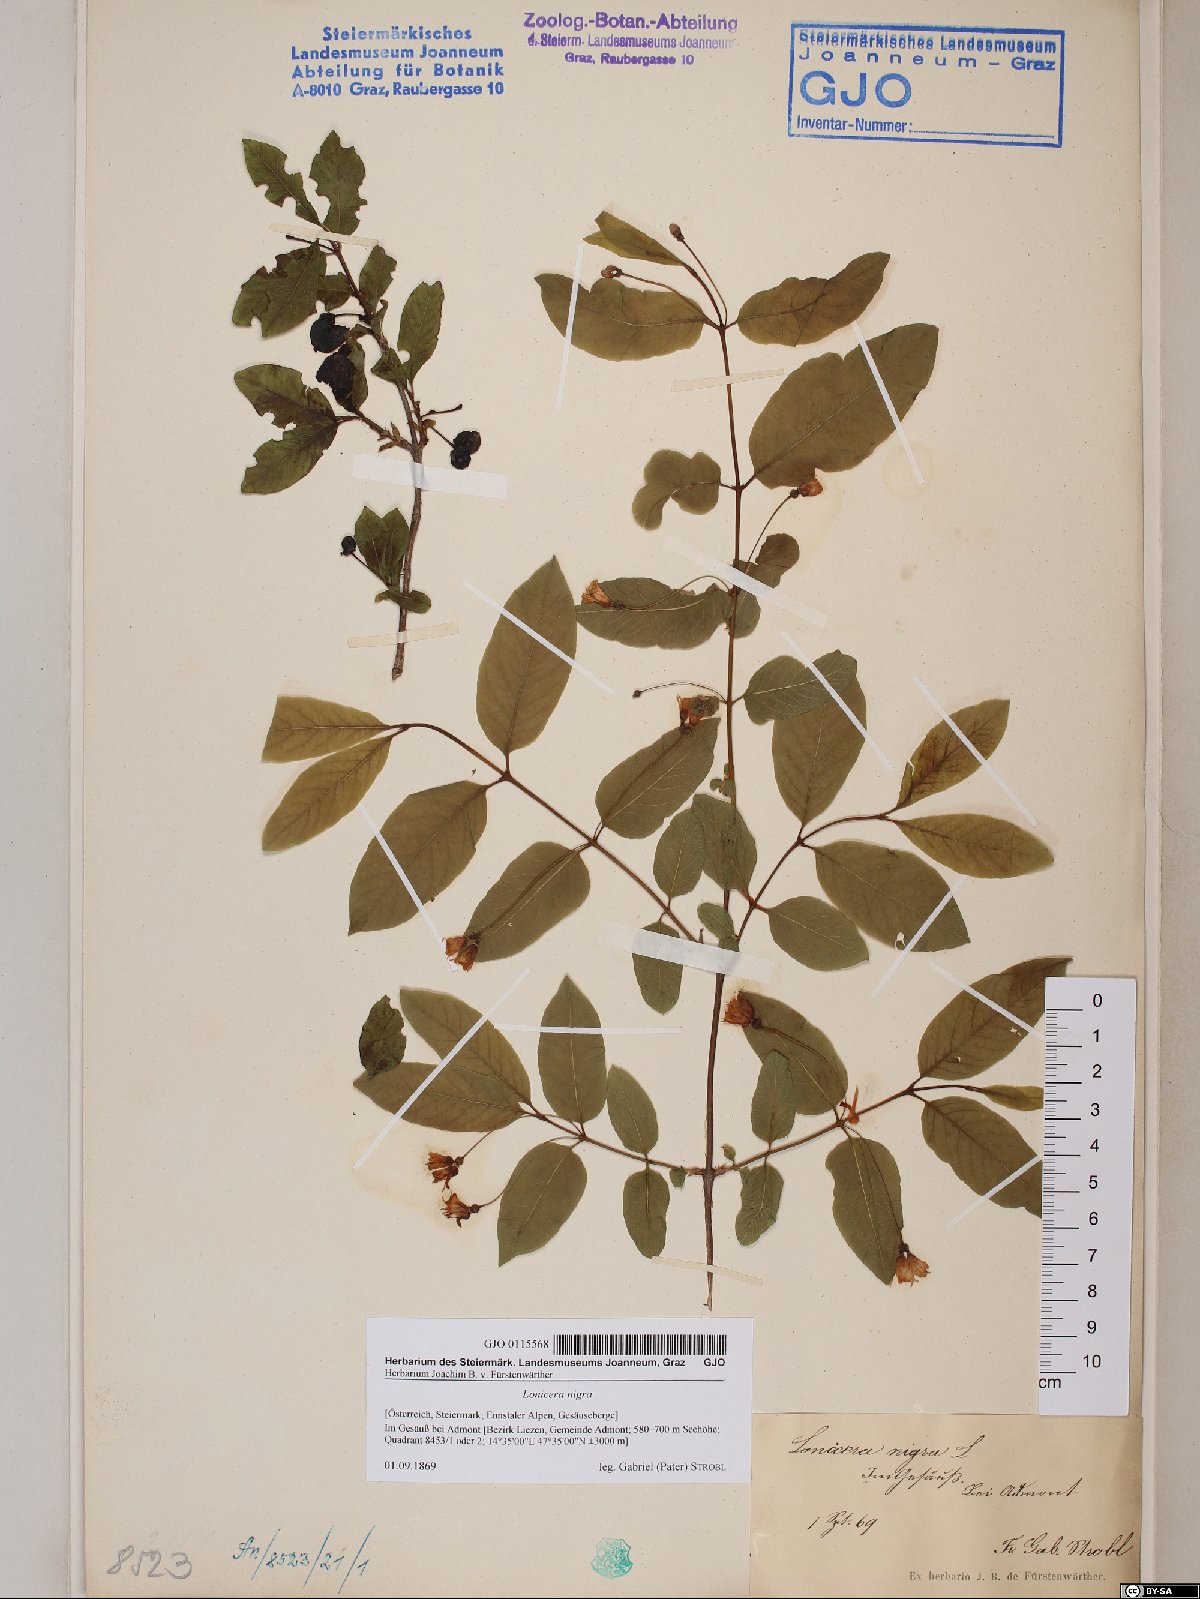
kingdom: Plantae
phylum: Tracheophyta
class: Magnoliopsida
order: Dipsacales
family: Caprifoliaceae
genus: Lonicera
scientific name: Lonicera nigra
